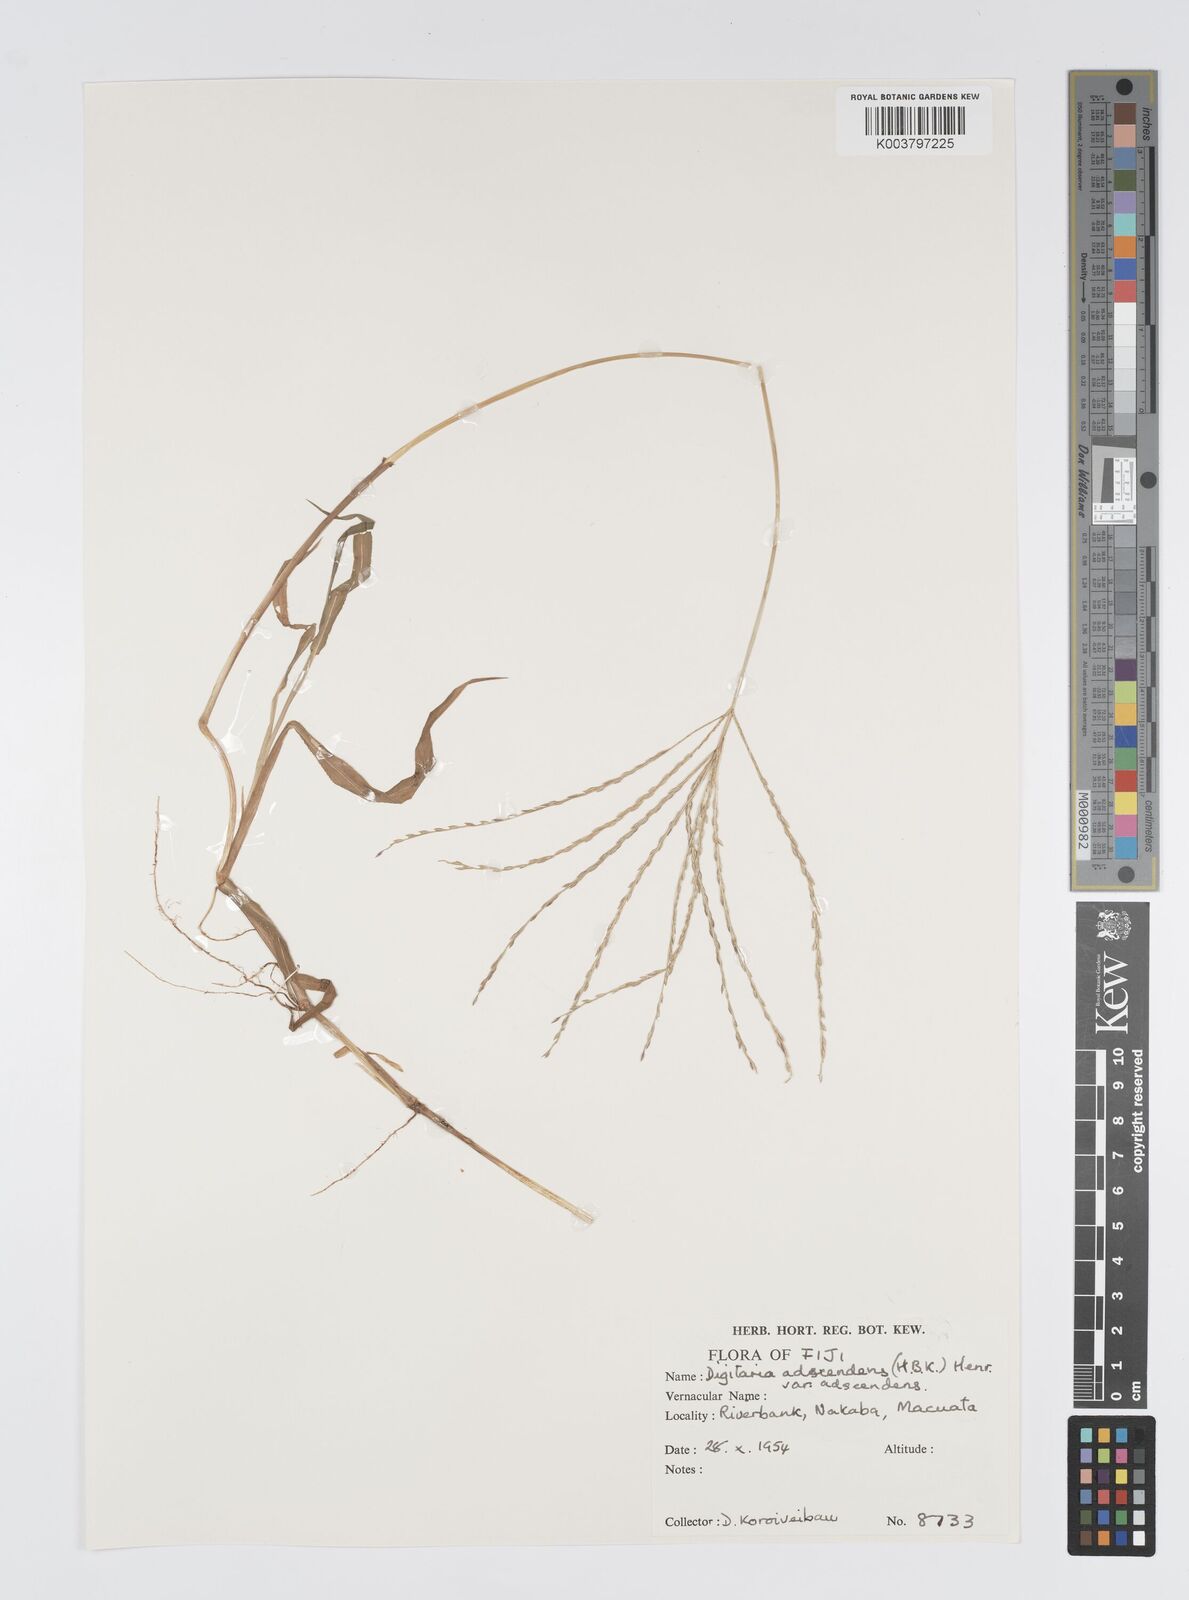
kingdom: Plantae
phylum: Tracheophyta
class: Liliopsida
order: Poales
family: Poaceae
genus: Digitaria
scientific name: Digitaria ciliaris
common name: Tropical finger-grass
